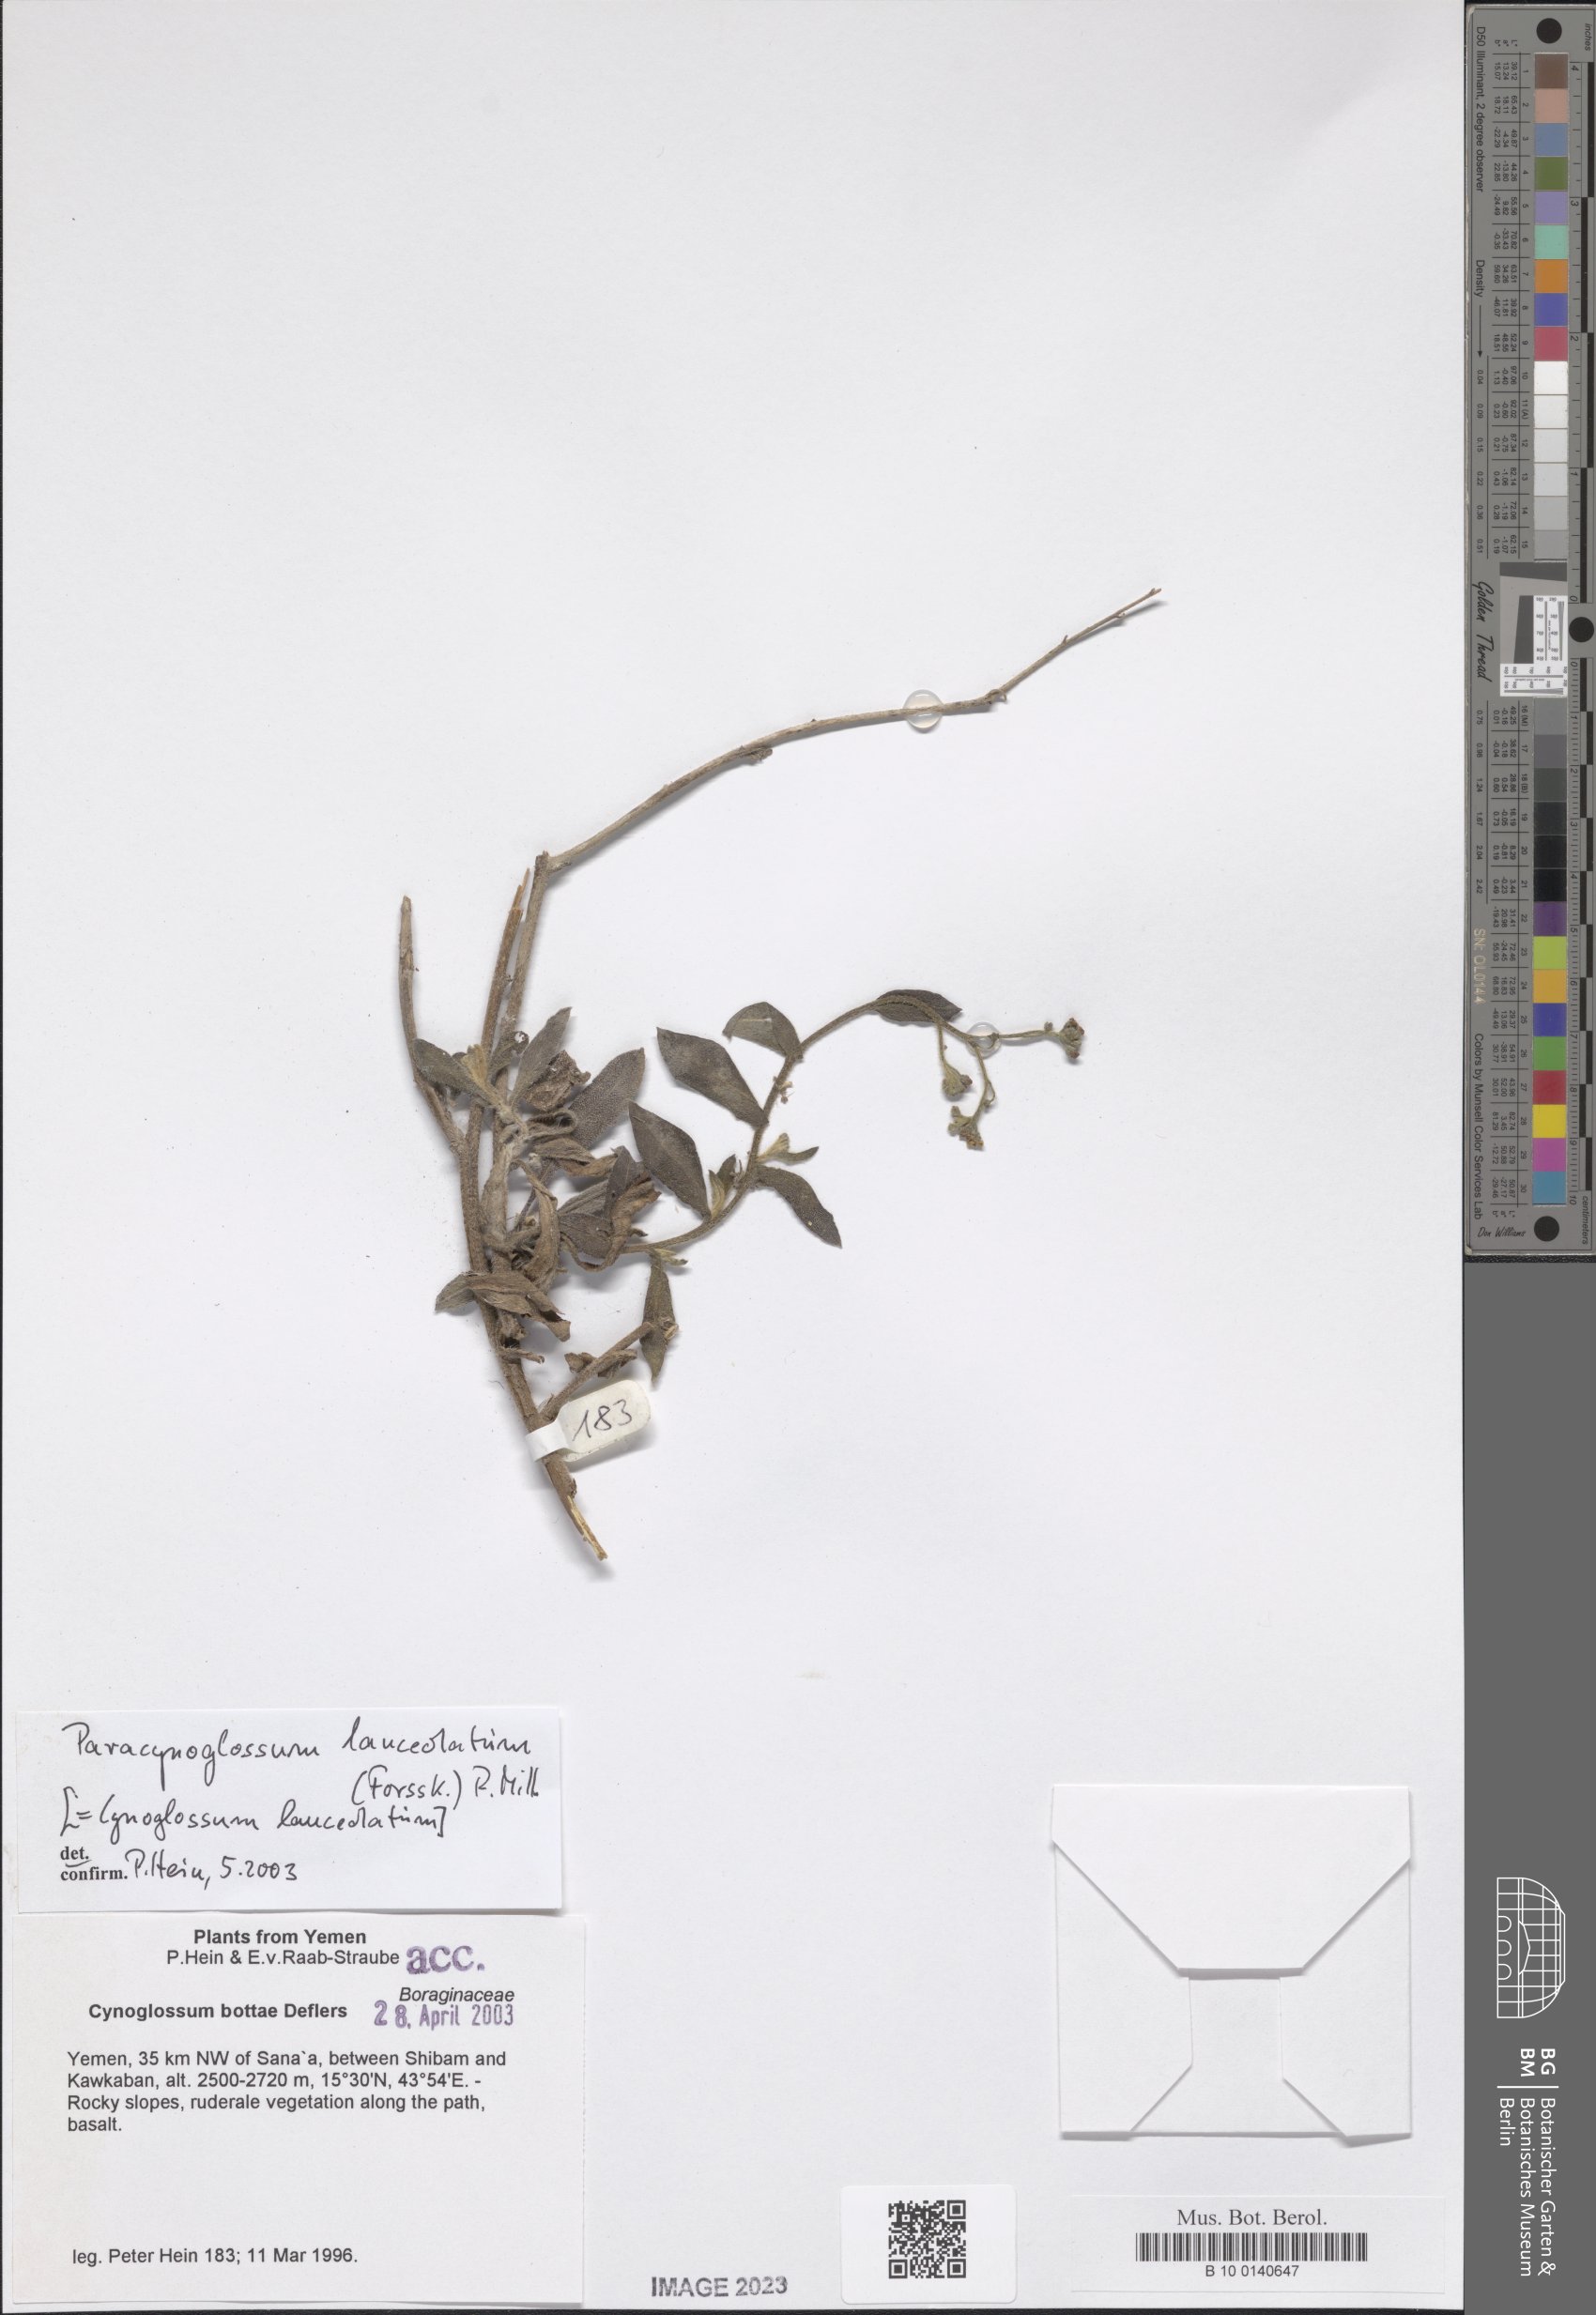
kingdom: Plantae
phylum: Tracheophyta
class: Magnoliopsida
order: Boraginales
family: Boraginaceae
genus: Paracynoglossum
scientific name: Paracynoglossum lanceolatum
